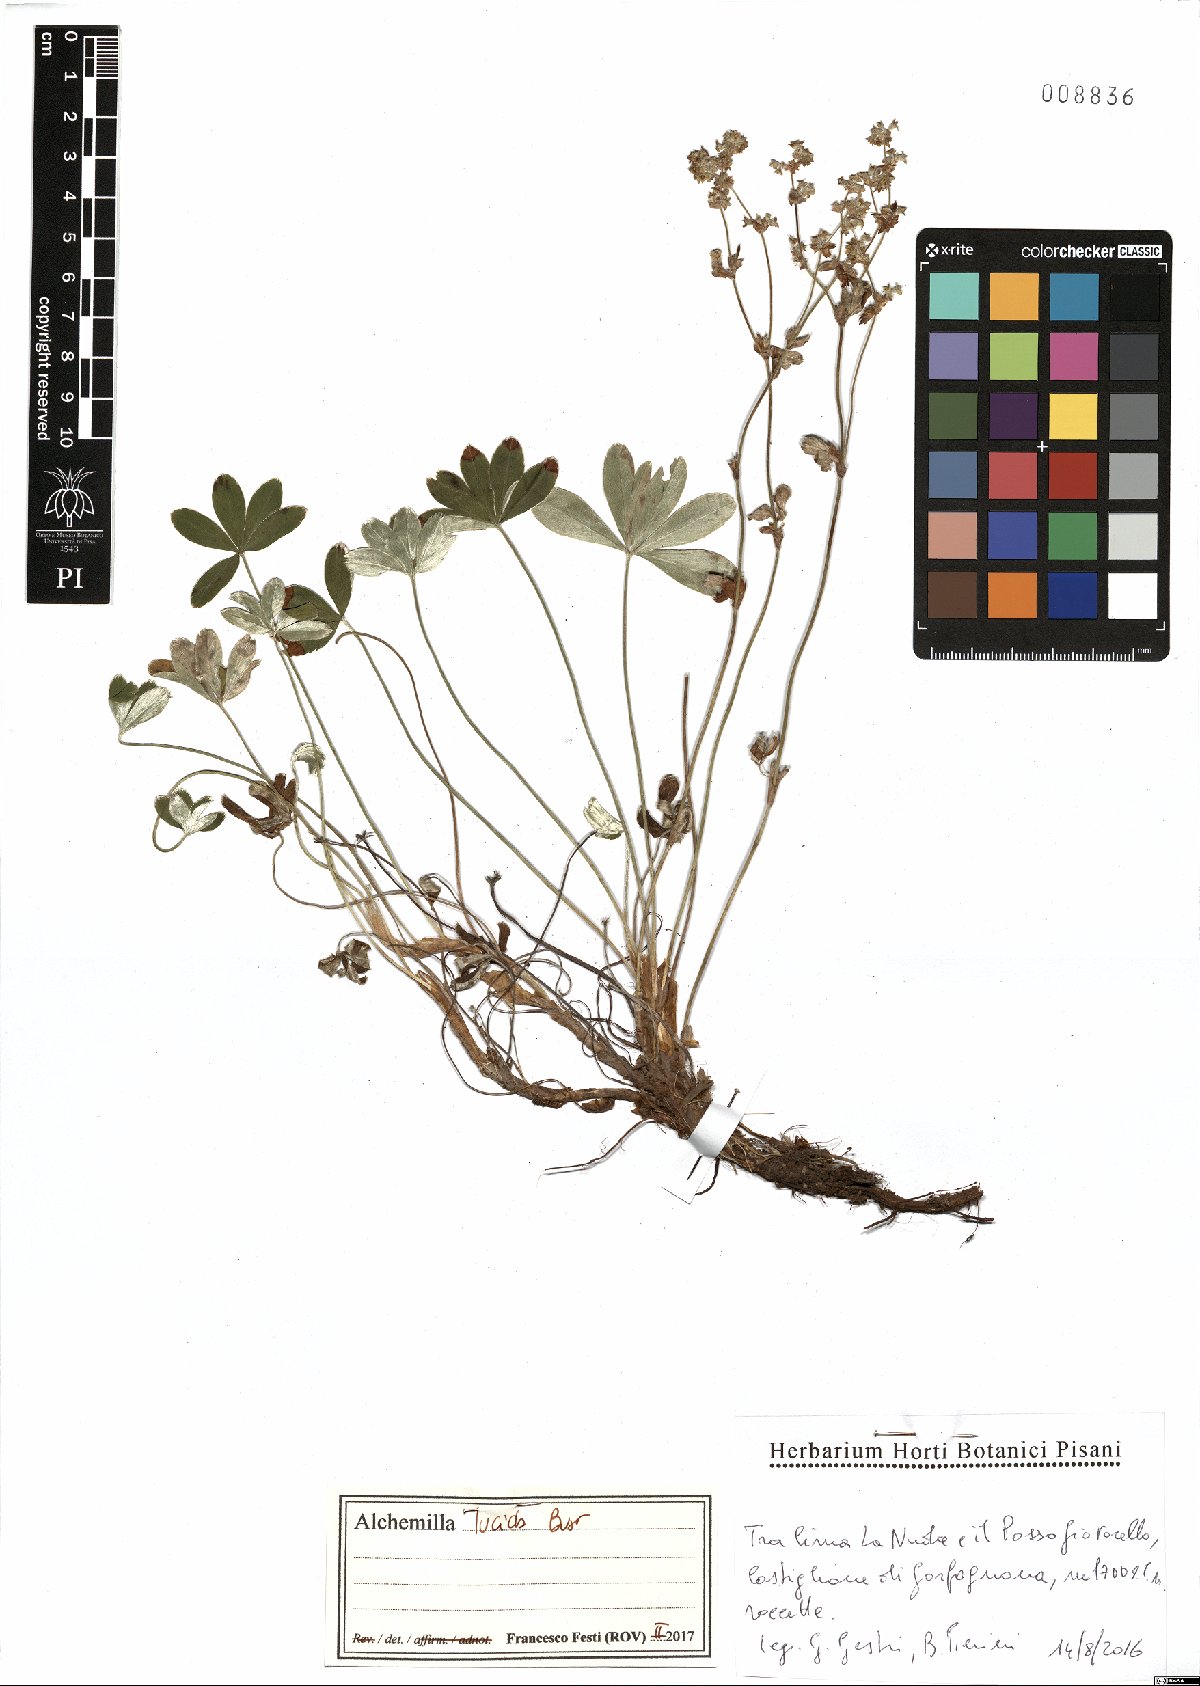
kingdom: Plantae
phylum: Tracheophyta
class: Magnoliopsida
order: Rosales
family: Rosaceae
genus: Alchemilla
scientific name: Alchemilla lucida
